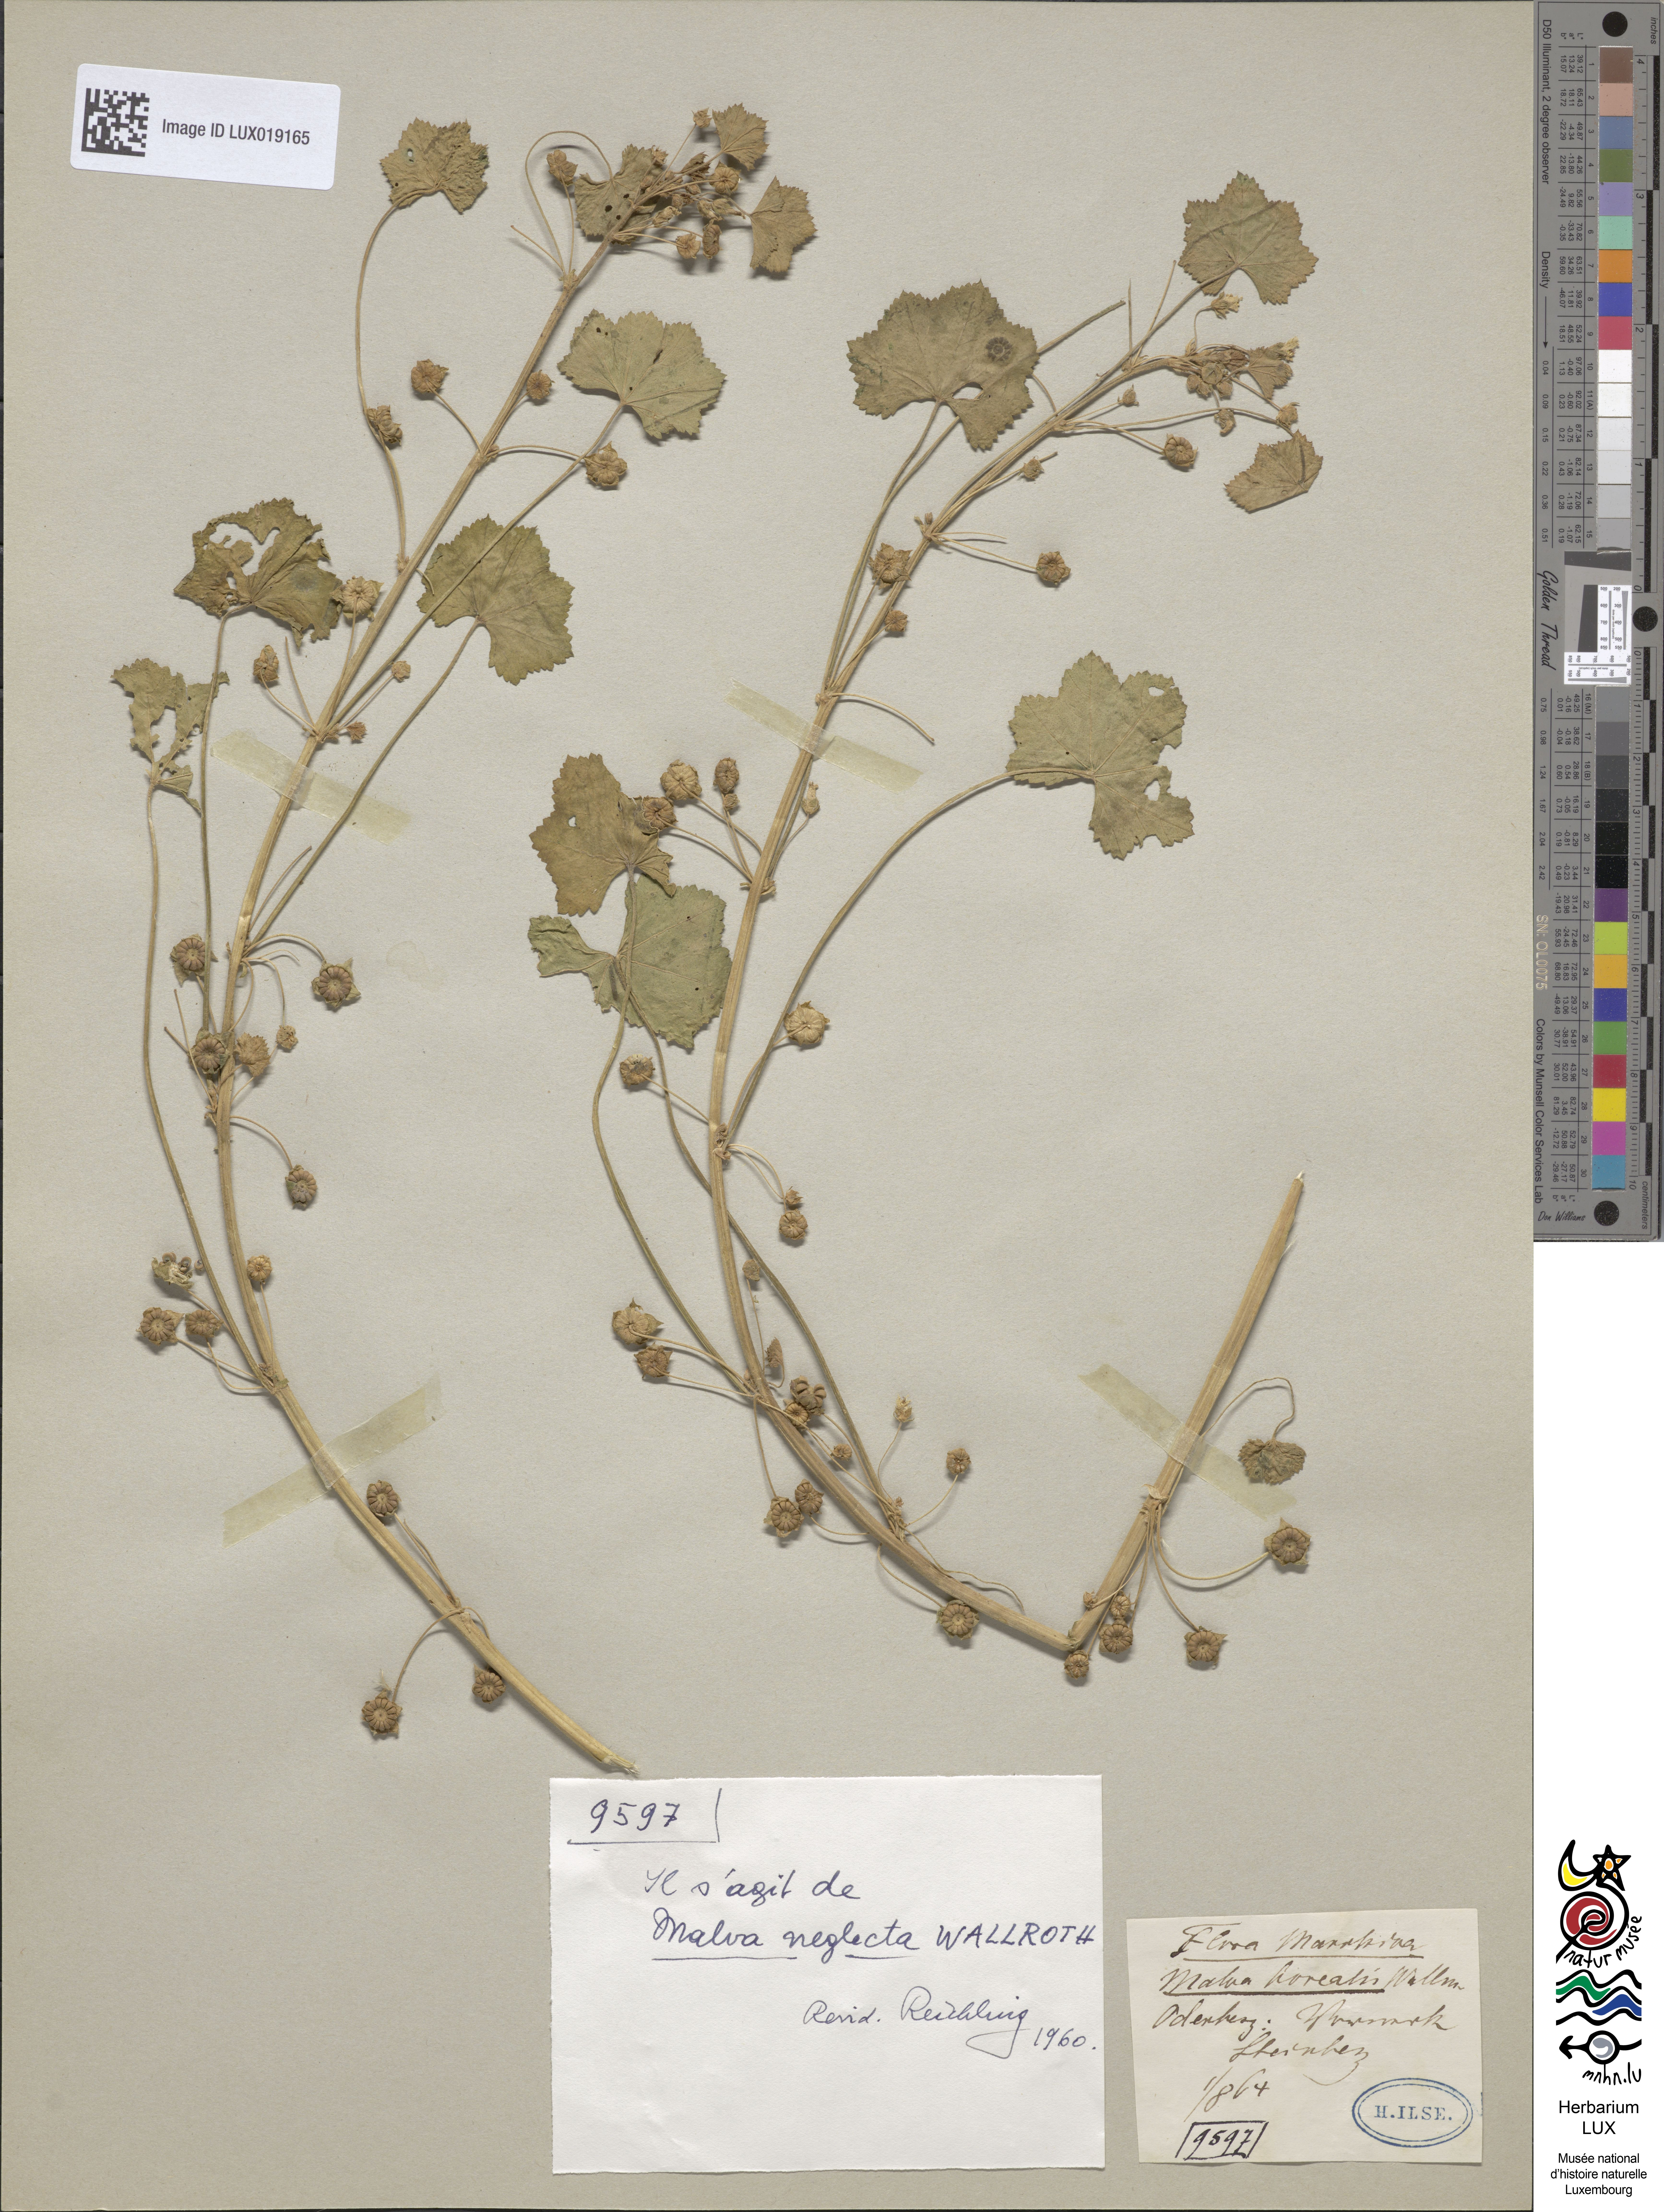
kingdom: Plantae
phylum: Tracheophyta
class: Magnoliopsida
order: Malvales
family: Malvaceae
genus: Malva
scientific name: Malva neglecta
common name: Common mallow
